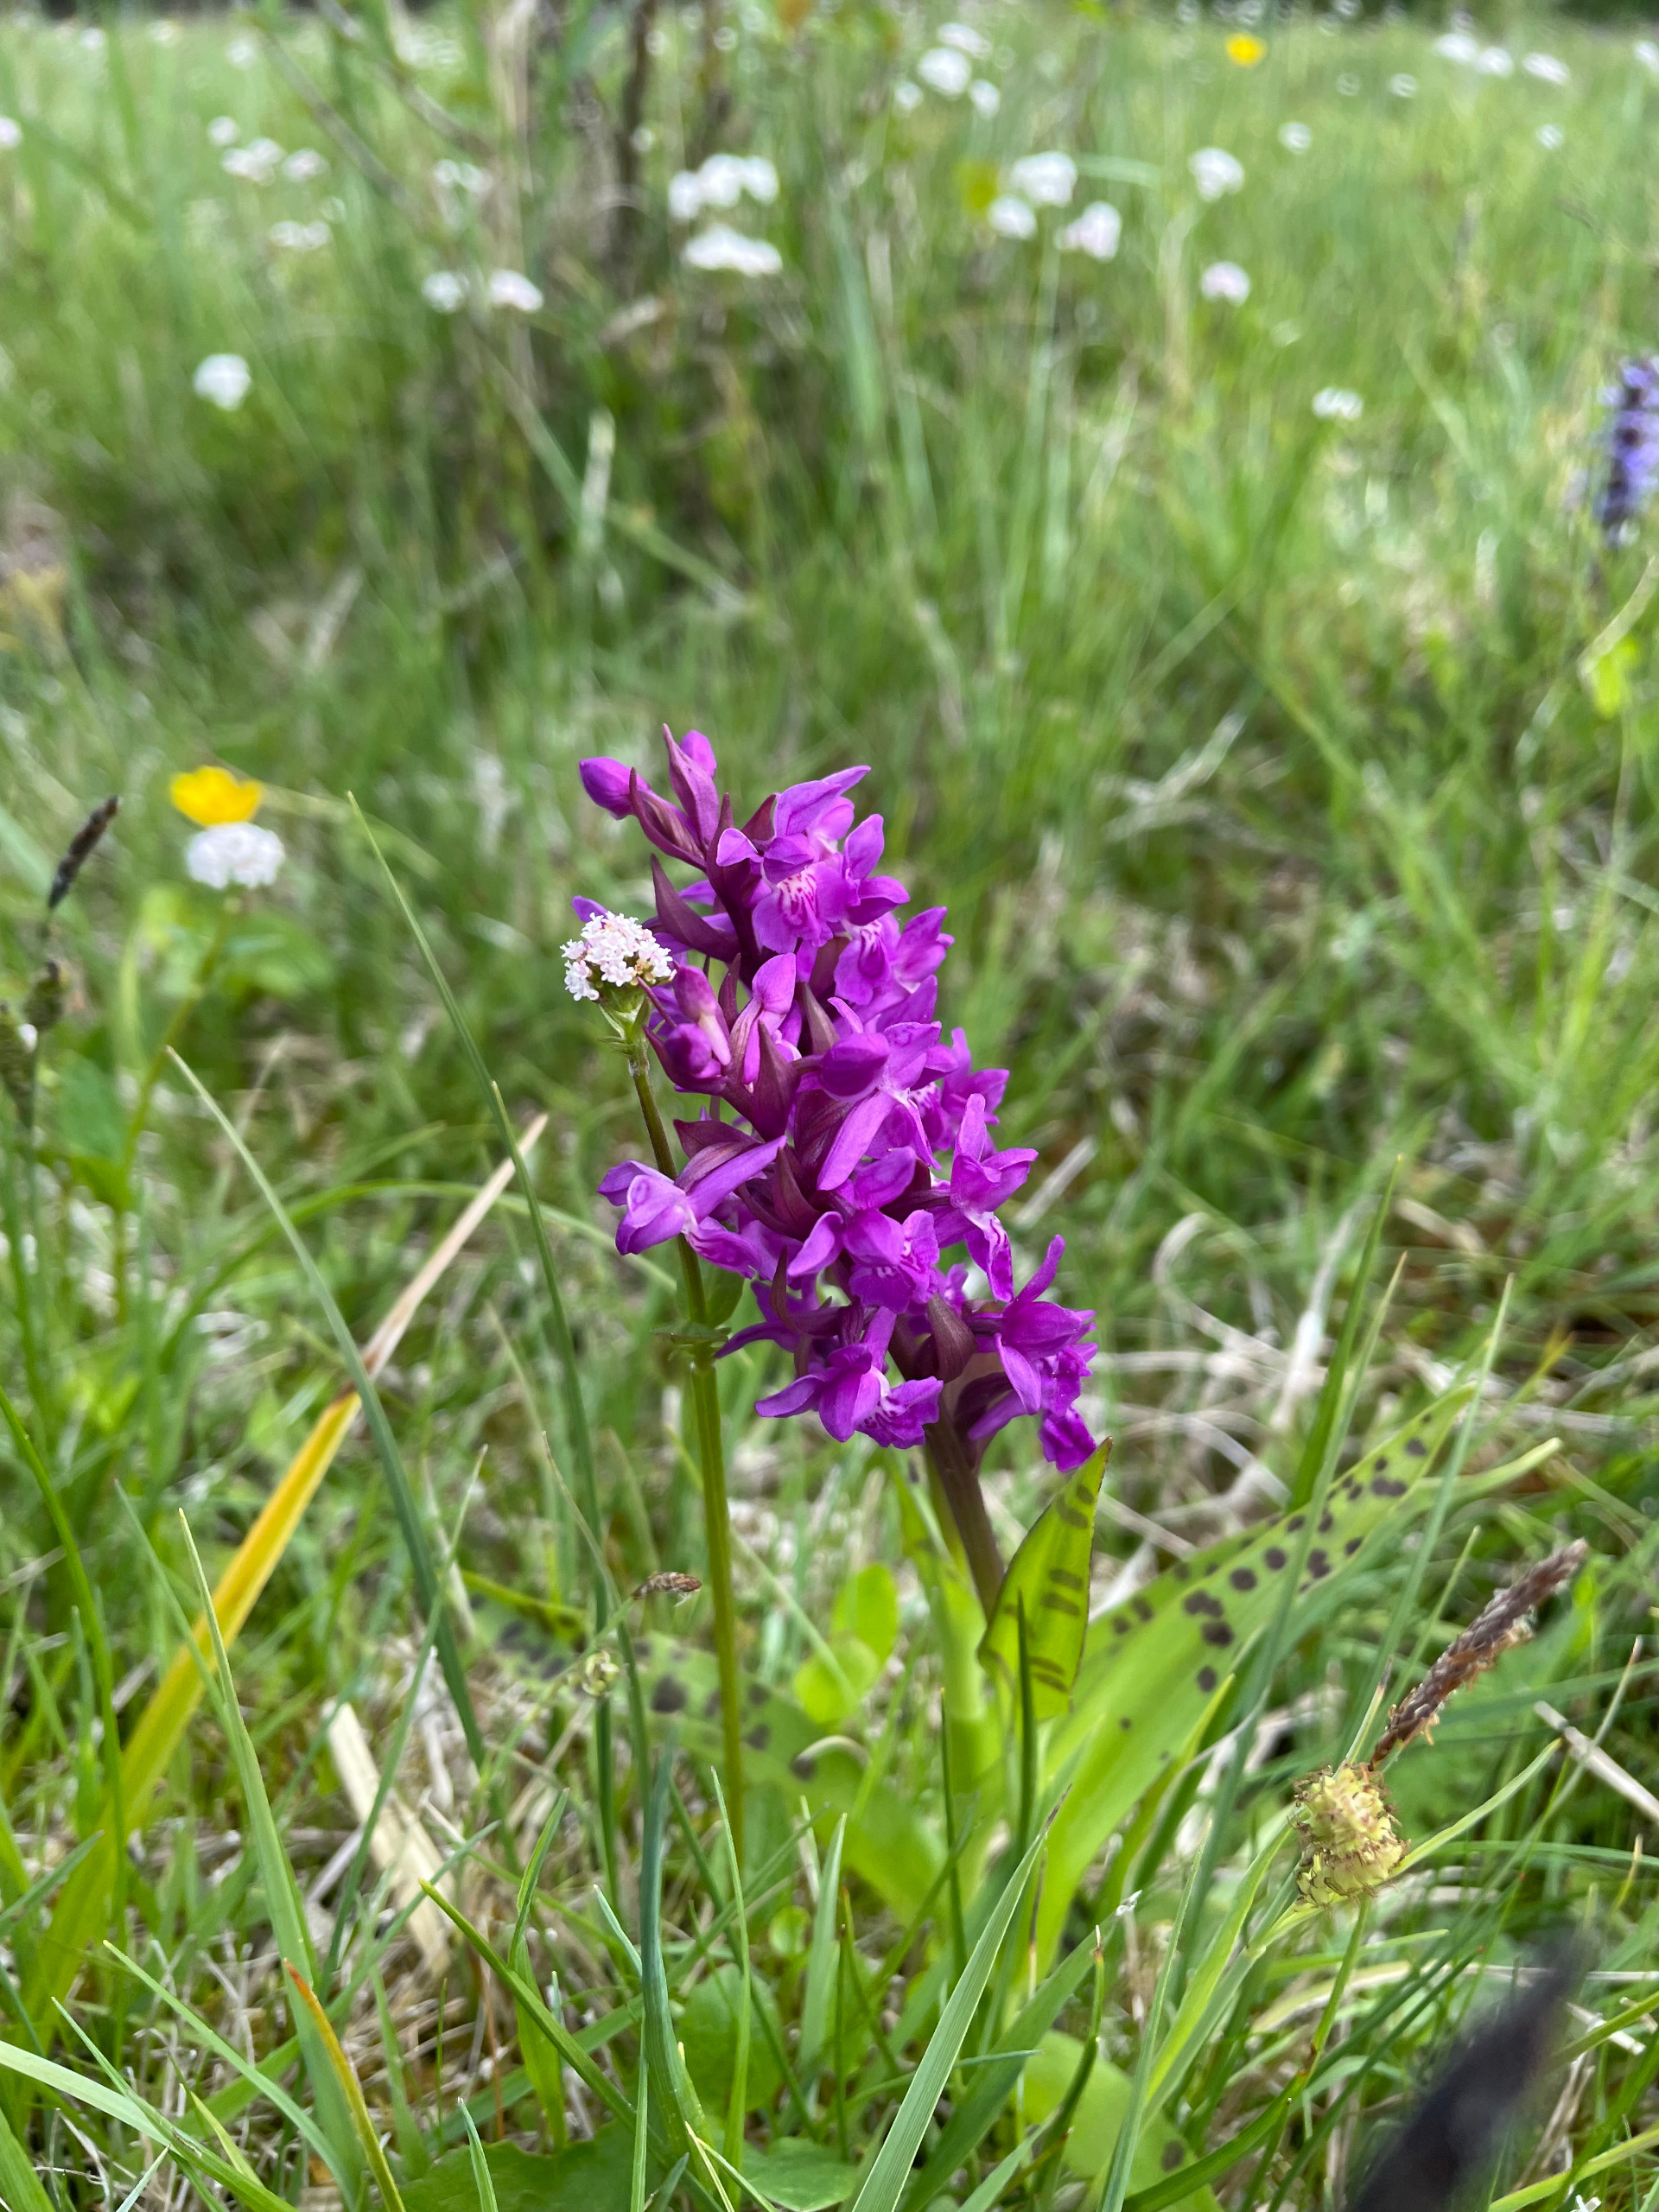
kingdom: Plantae
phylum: Tracheophyta
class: Liliopsida
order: Asparagales
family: Orchidaceae
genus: Dactylorhiza
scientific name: Dactylorhiza majalis
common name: Maj-gøgeurt
